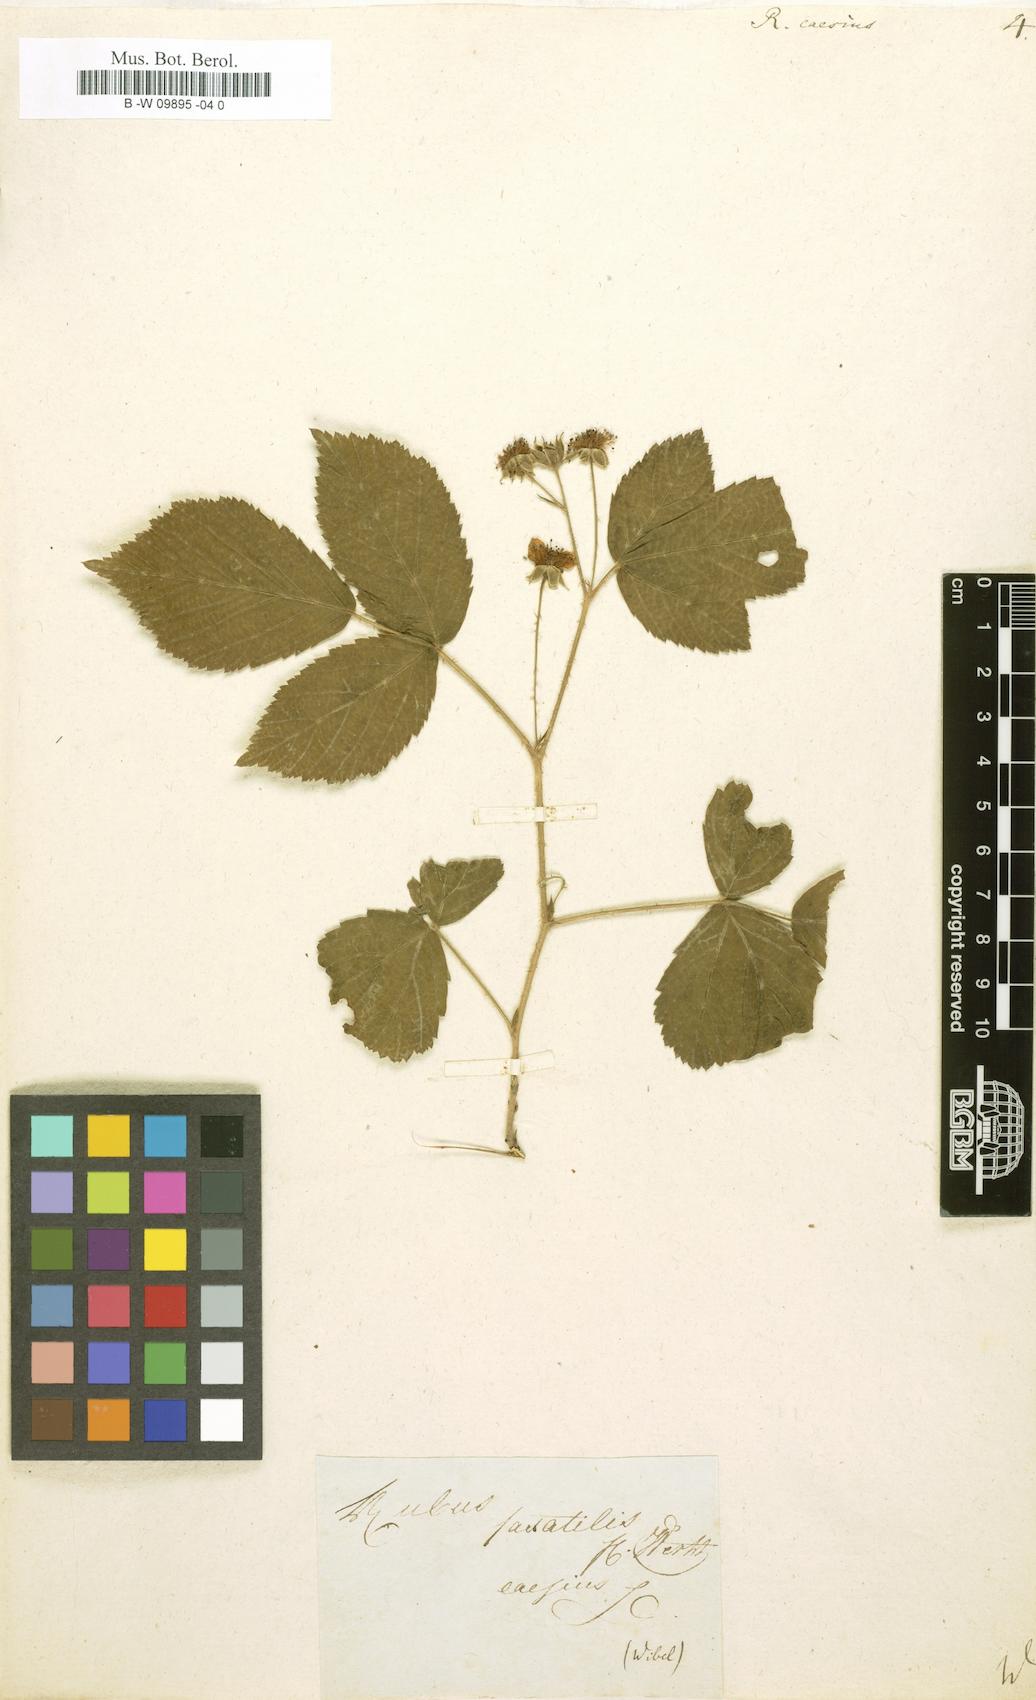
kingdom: Plantae
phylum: Tracheophyta
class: Magnoliopsida
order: Rosales
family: Rosaceae
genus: Rubus
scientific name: Rubus caesius
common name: Dewberry
